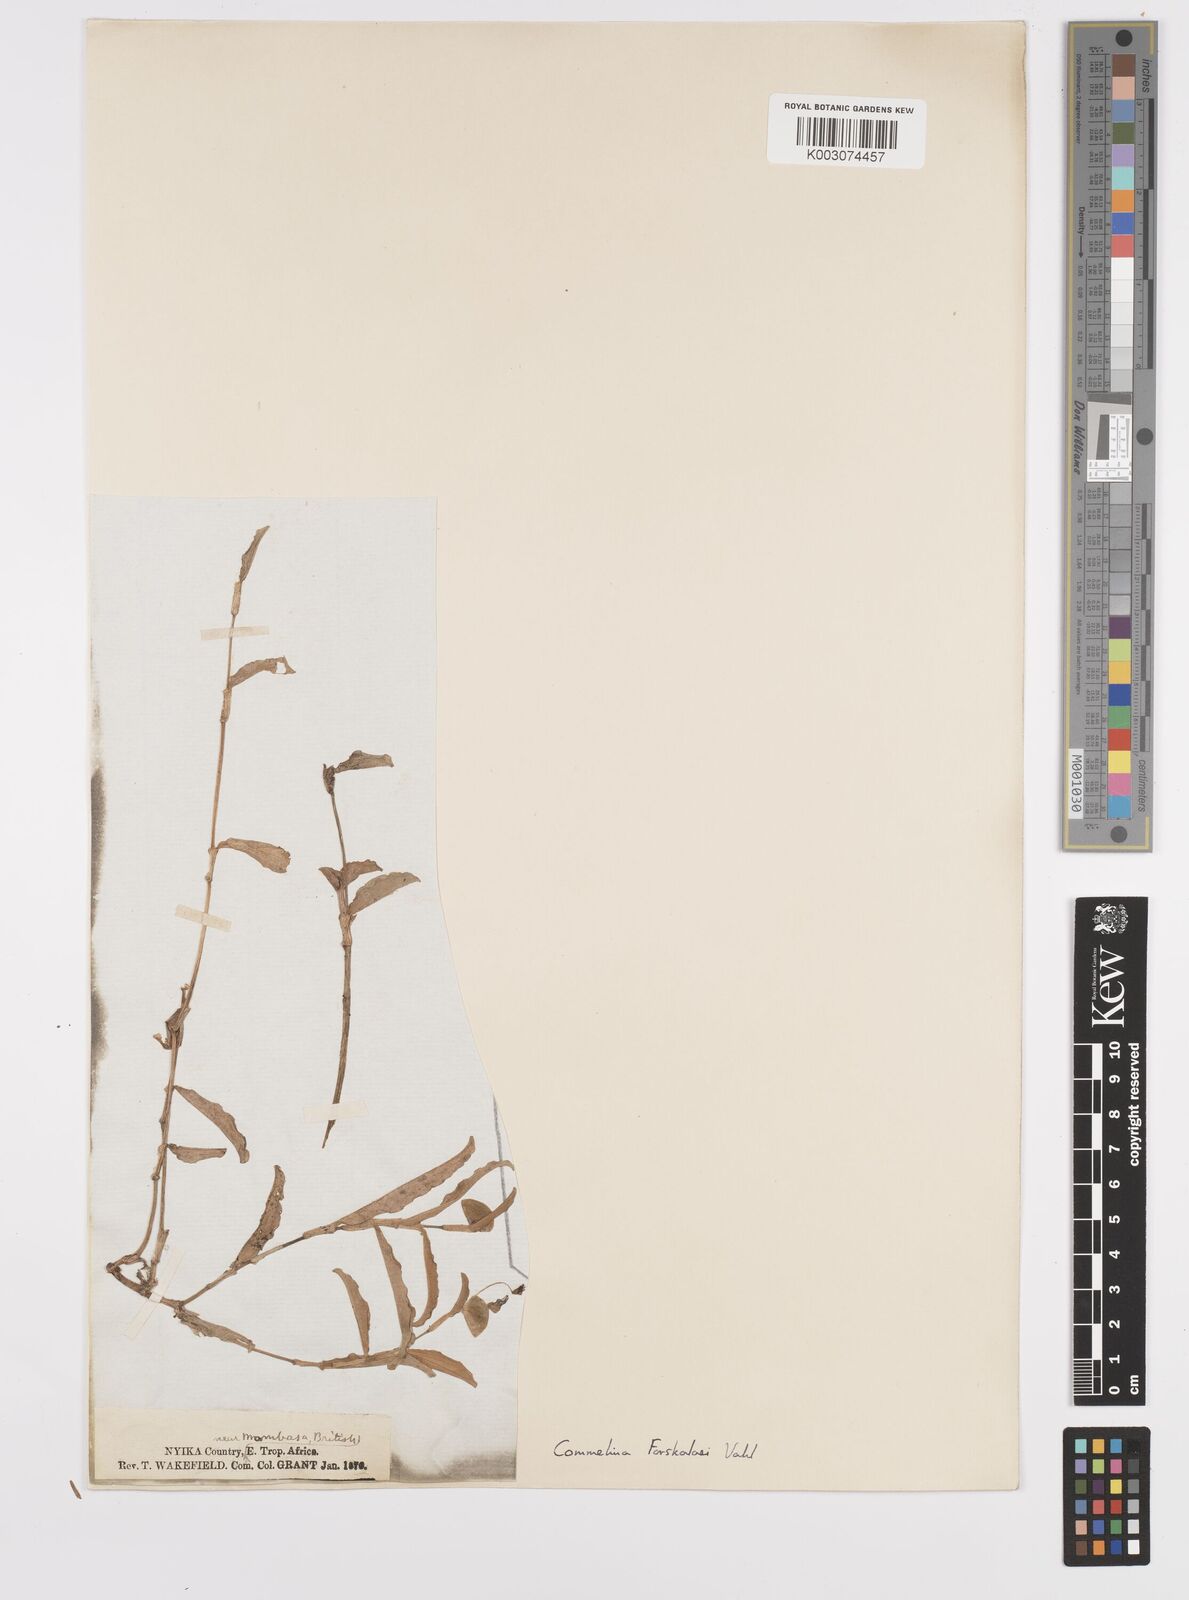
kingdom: Plantae
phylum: Tracheophyta
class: Liliopsida
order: Commelinales
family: Commelinaceae
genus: Commelina
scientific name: Commelina
